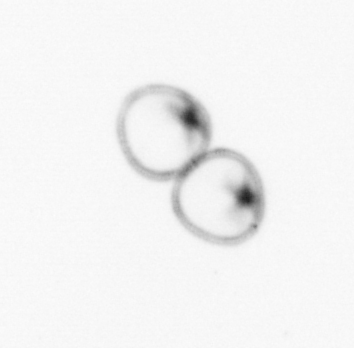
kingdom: Chromista
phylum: Myzozoa
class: Dinophyceae
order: Noctilucales
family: Noctilucaceae
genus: Noctiluca
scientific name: Noctiluca scintillans
